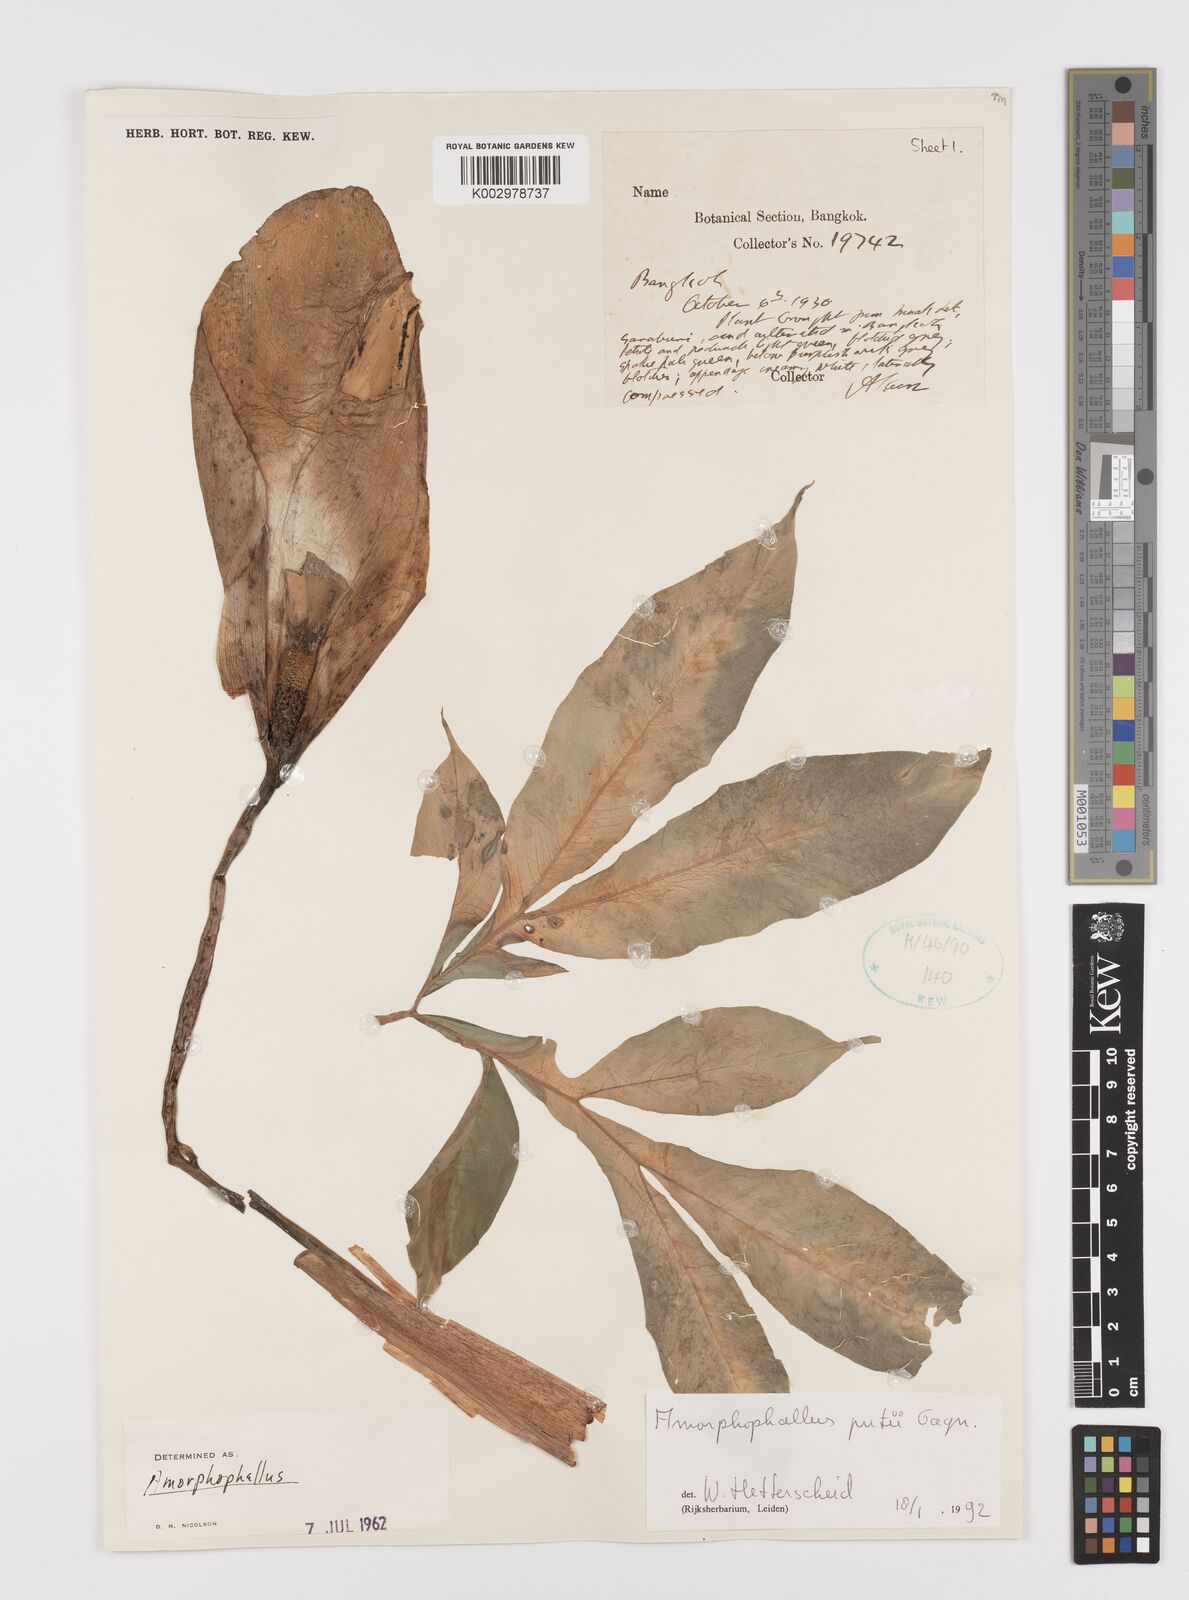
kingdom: Plantae
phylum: Tracheophyta
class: Liliopsida
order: Alismatales
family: Araceae
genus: Amorphophallus
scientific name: Amorphophallus putii
